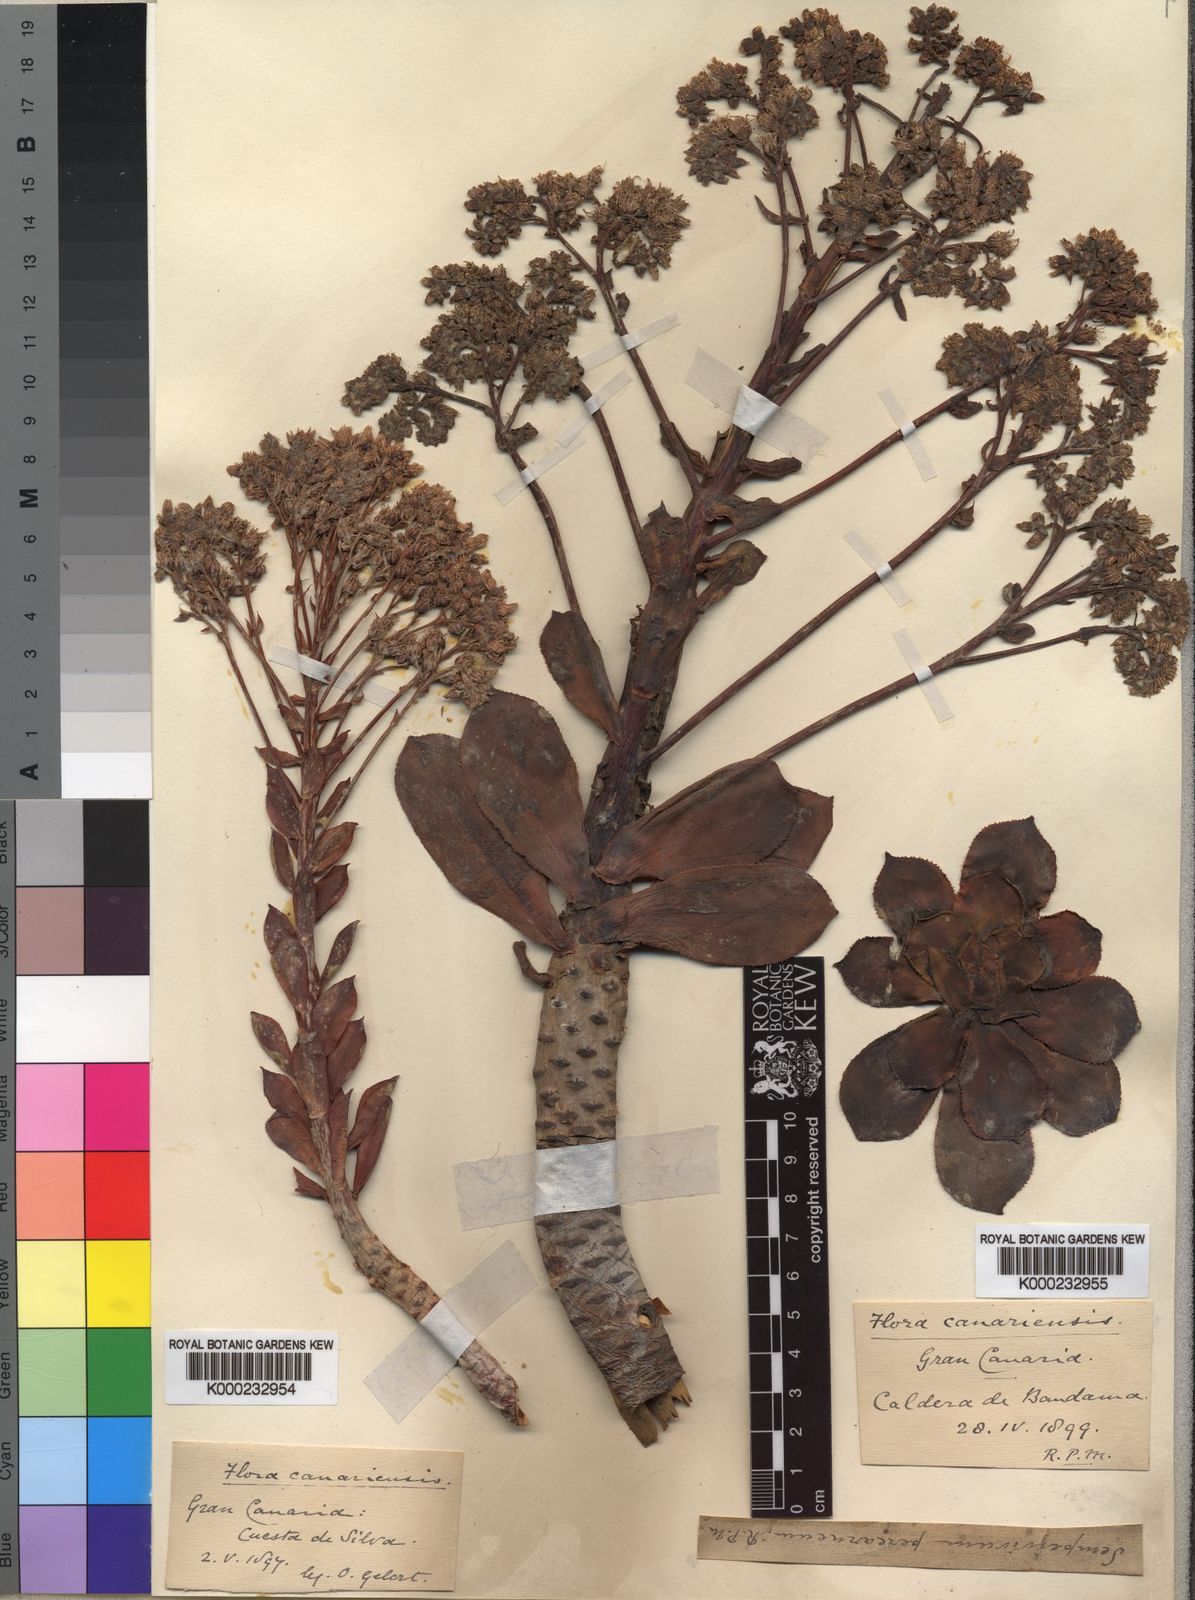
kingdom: Plantae
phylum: Tracheophyta
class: Magnoliopsida
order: Saxifragales
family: Crassulaceae
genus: Aeonium
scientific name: Aeonium percarneum
